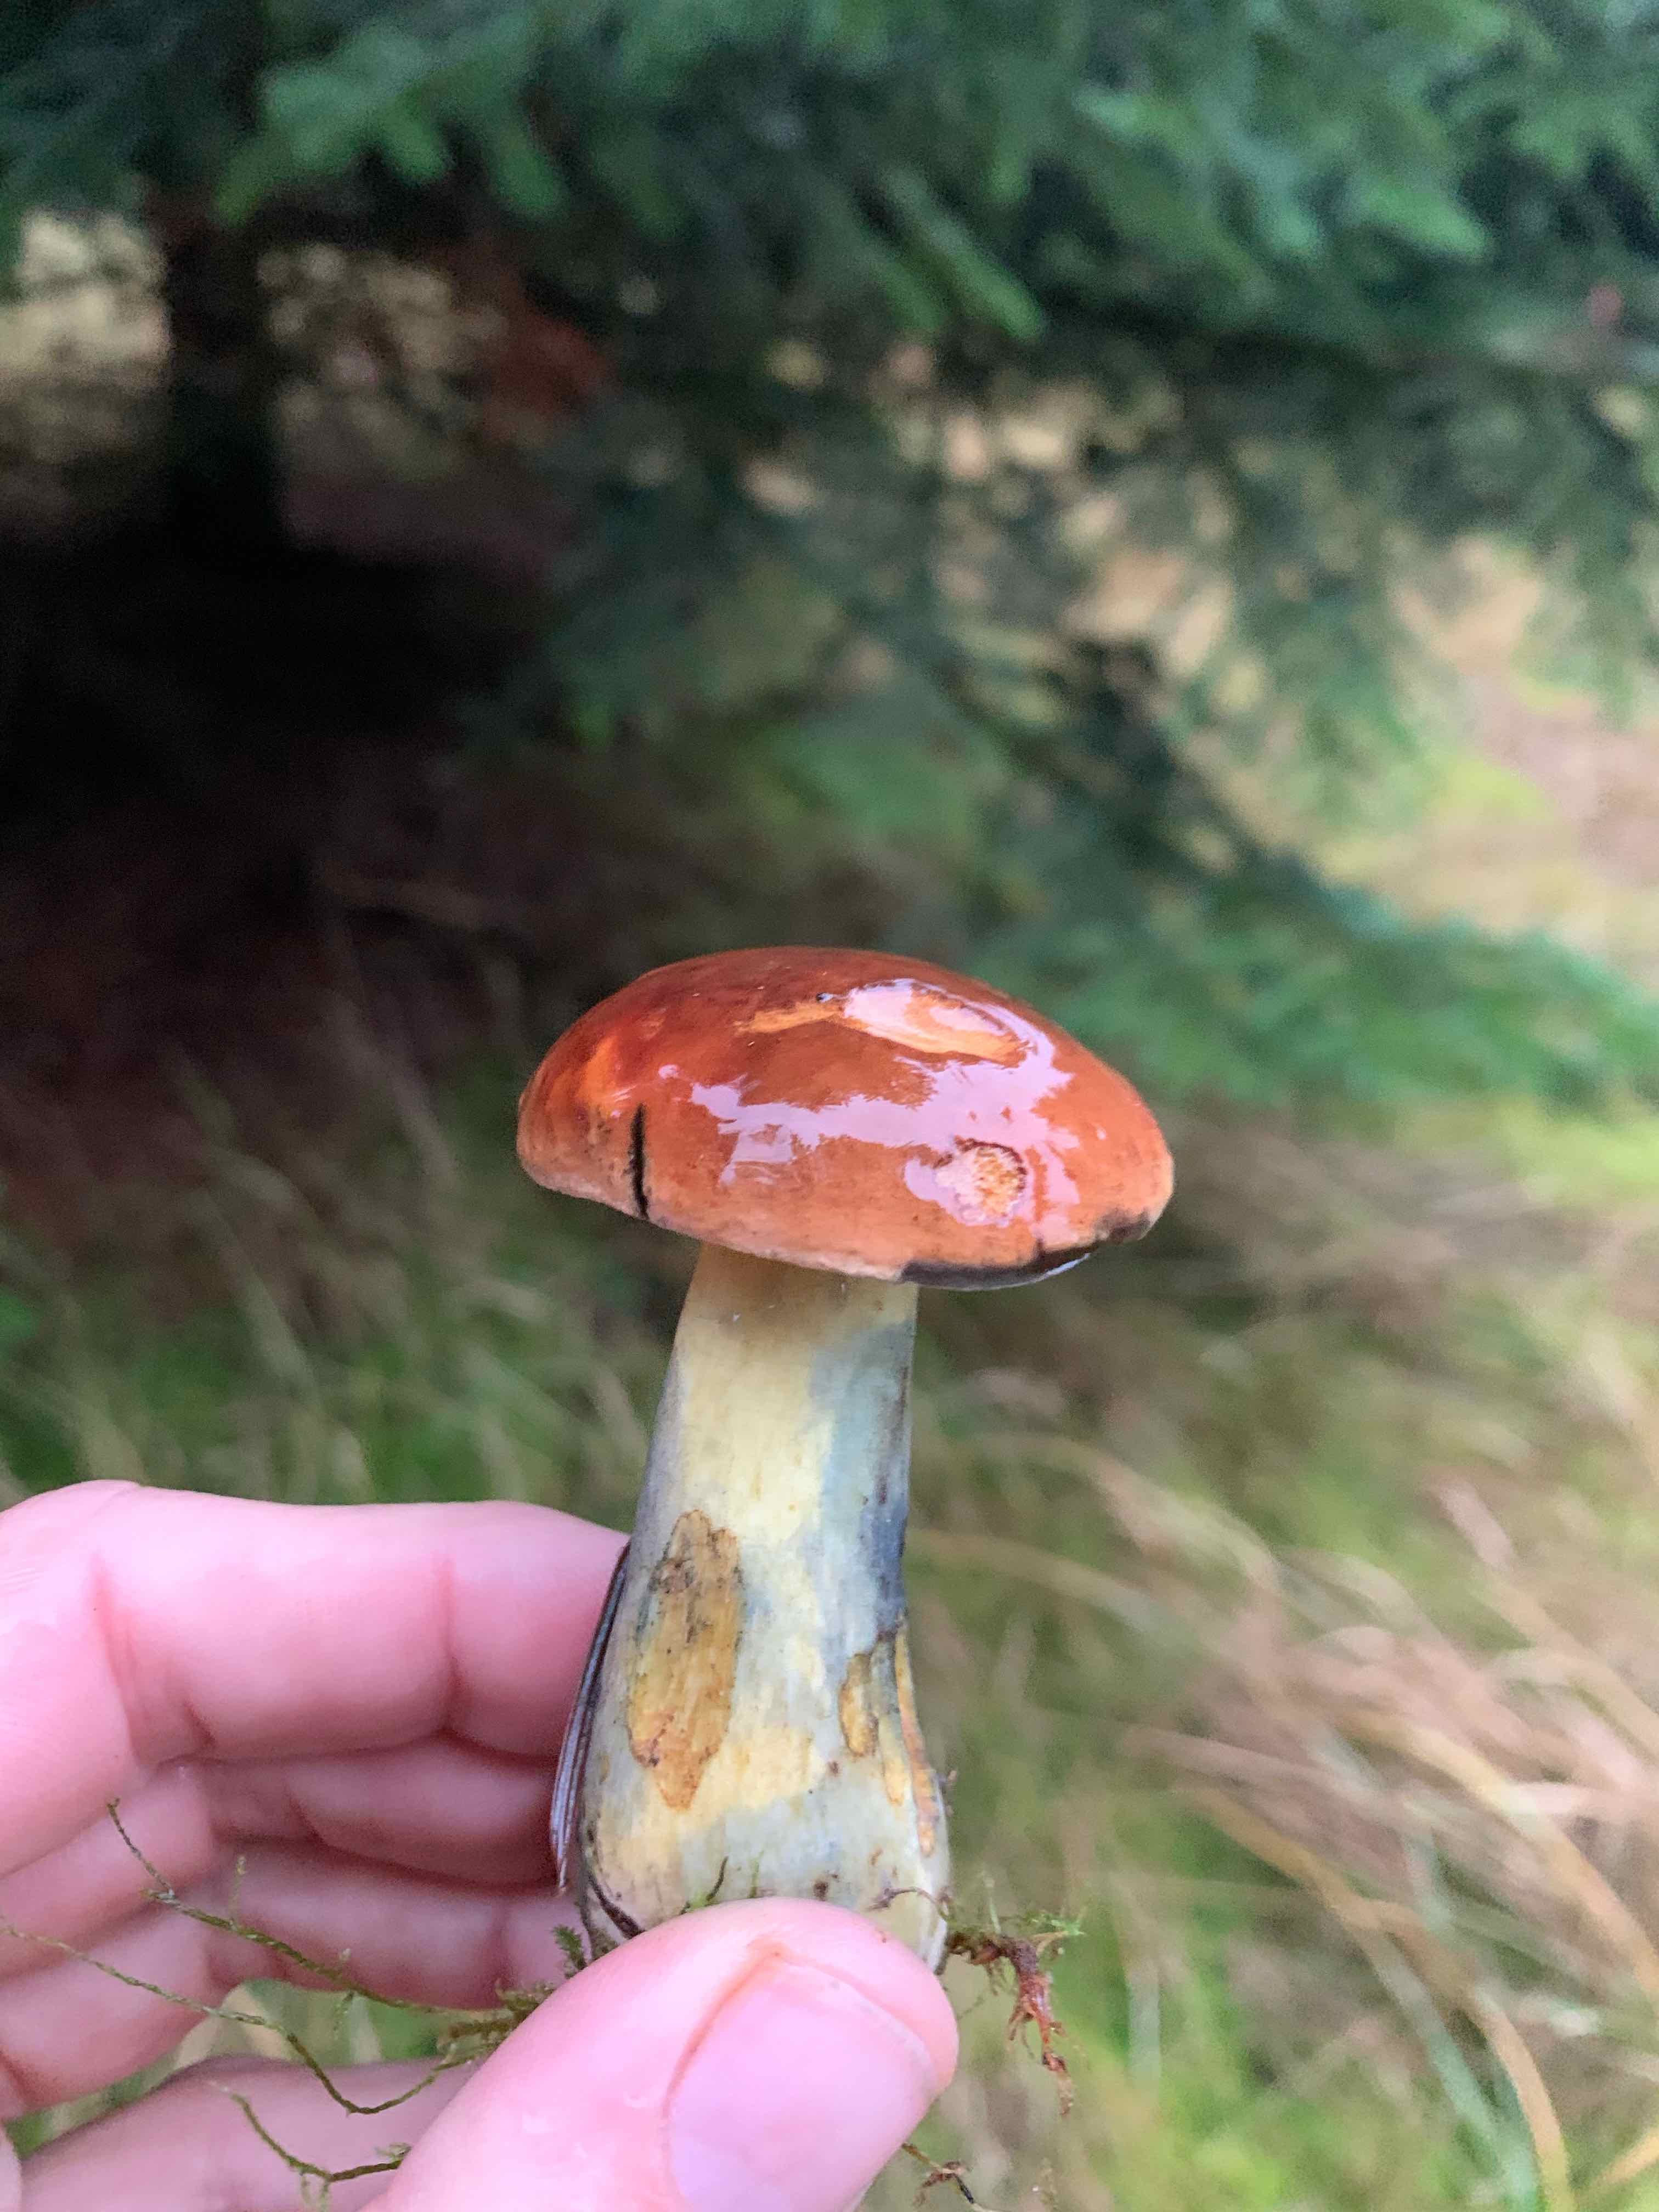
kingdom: Fungi
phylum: Basidiomycota
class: Agaricomycetes
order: Boletales
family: Boletaceae
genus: Cyanoboletus
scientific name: Cyanoboletus pulverulentus
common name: sortblånende rørhat
